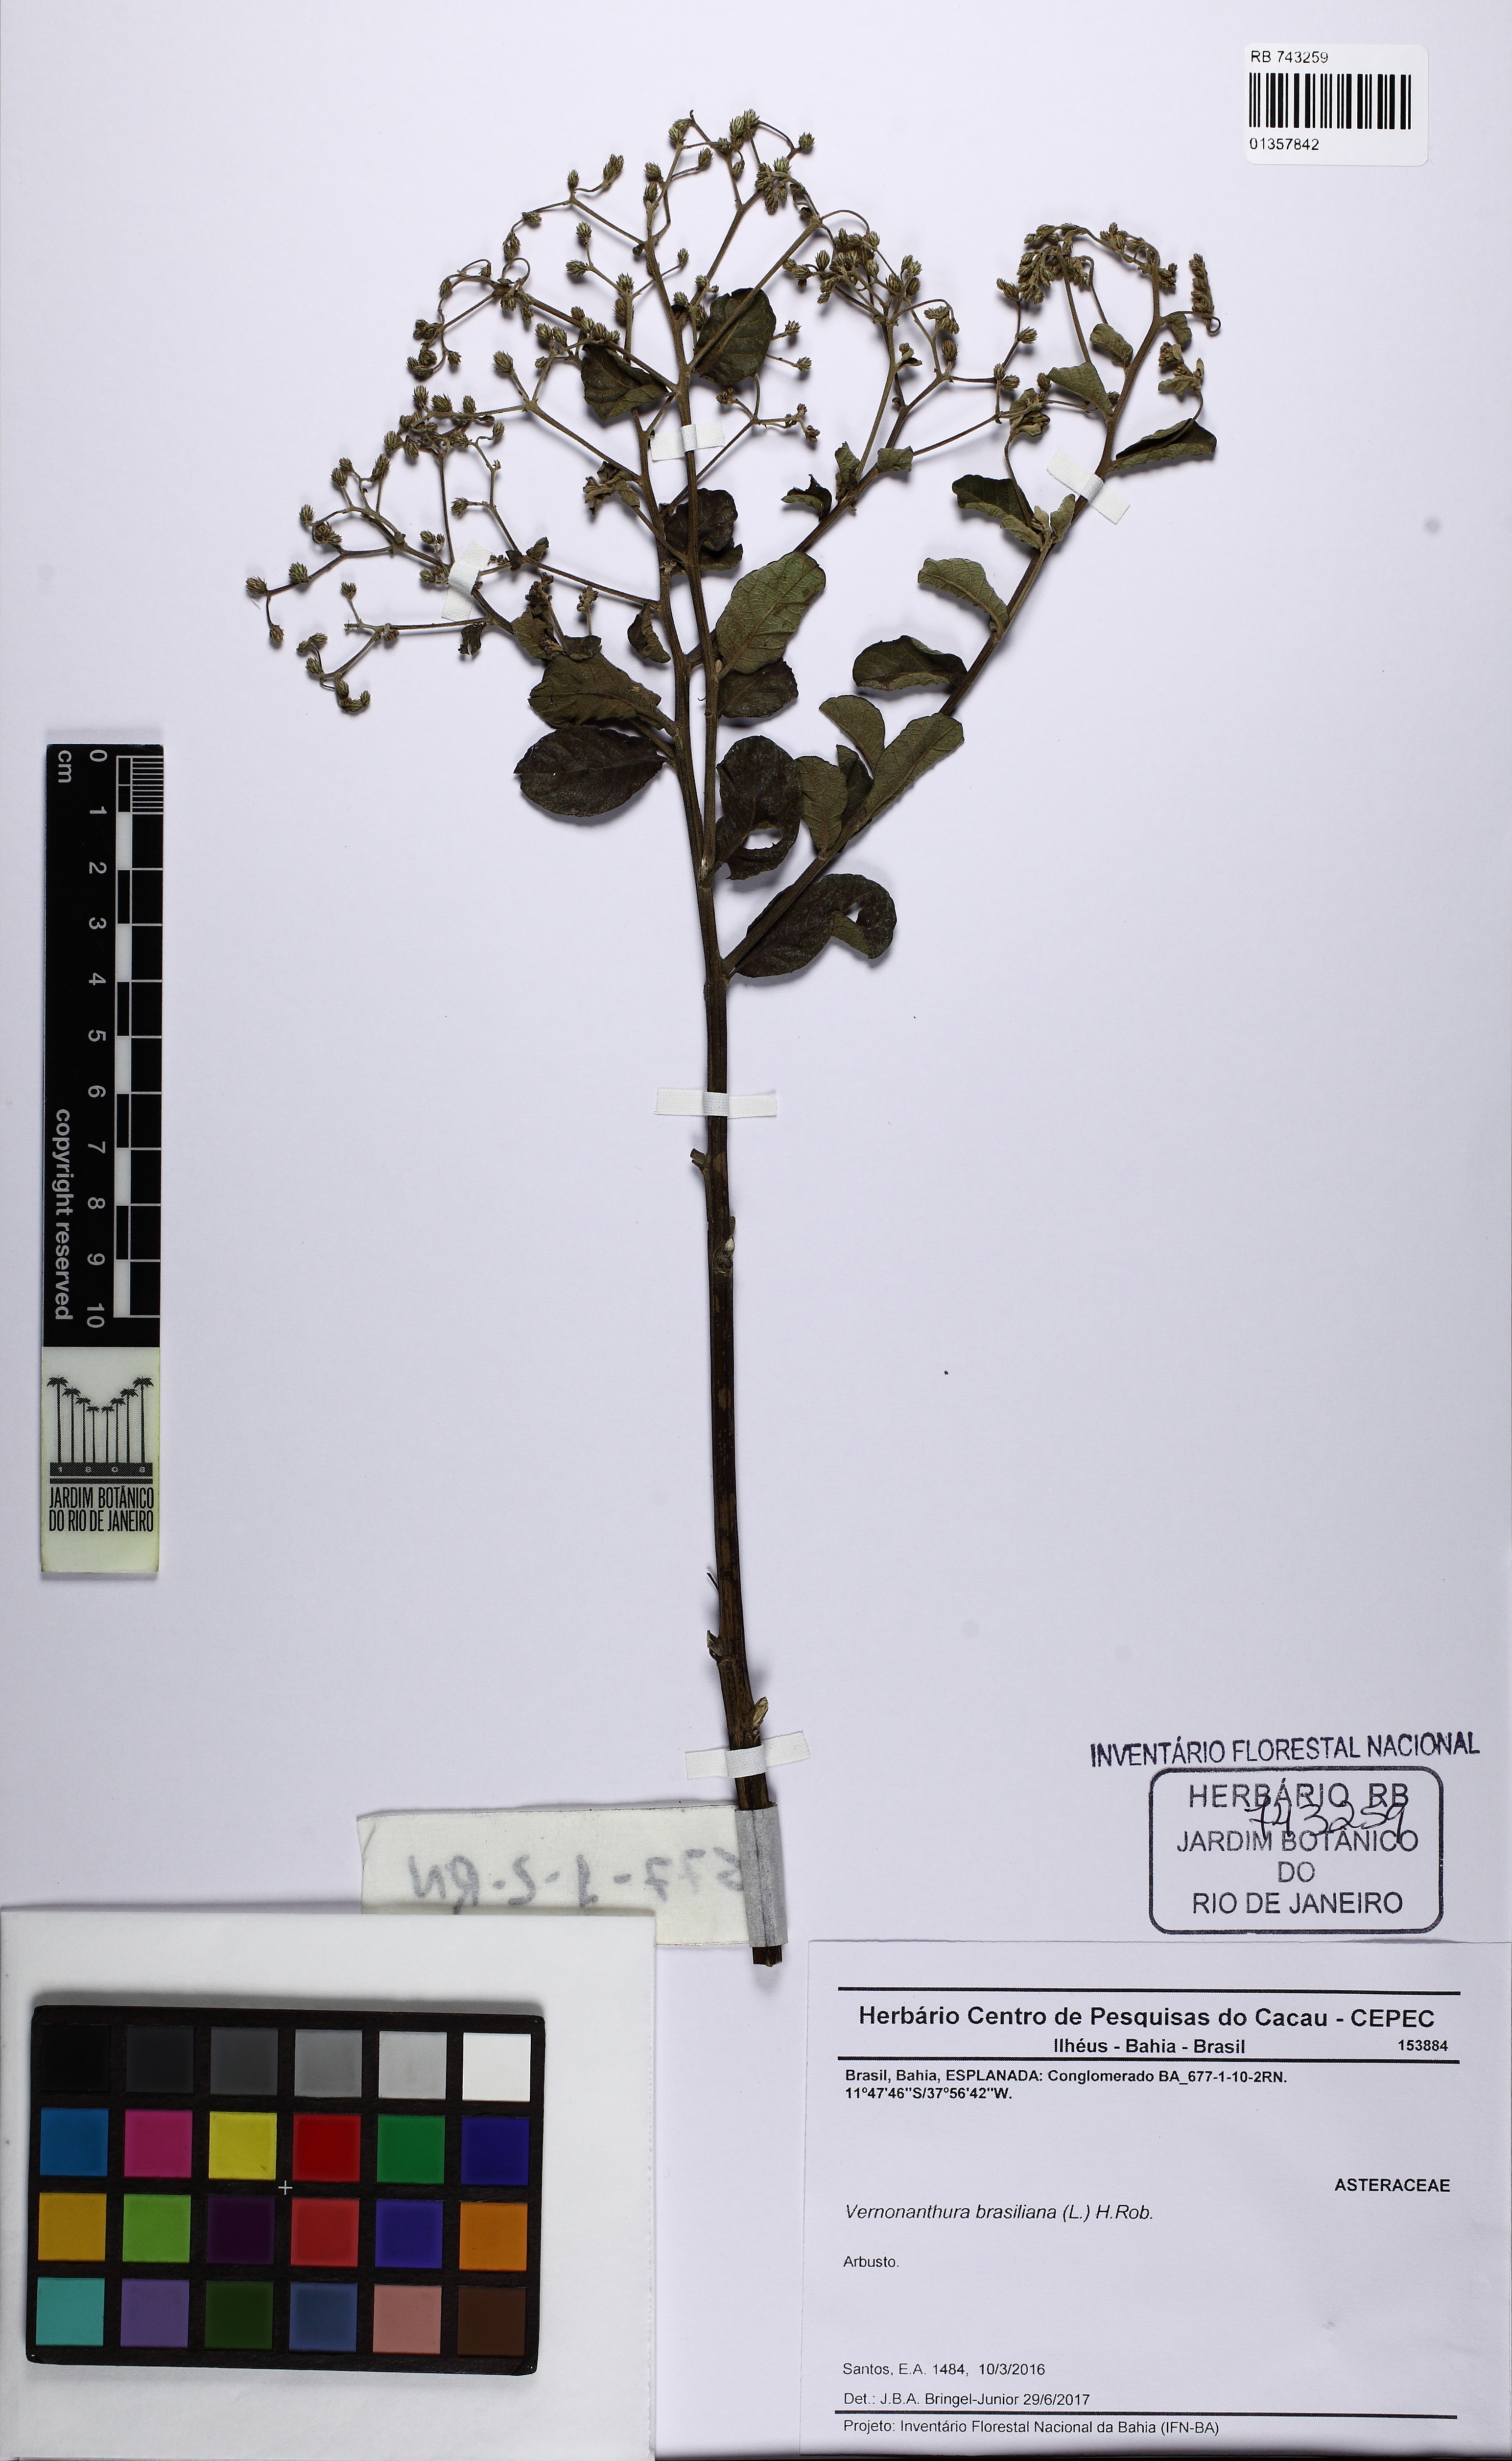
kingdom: Plantae
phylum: Tracheophyta
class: Magnoliopsida
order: Asterales
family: Asteraceae
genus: Vernonanthura
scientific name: Vernonanthura brasiliana
